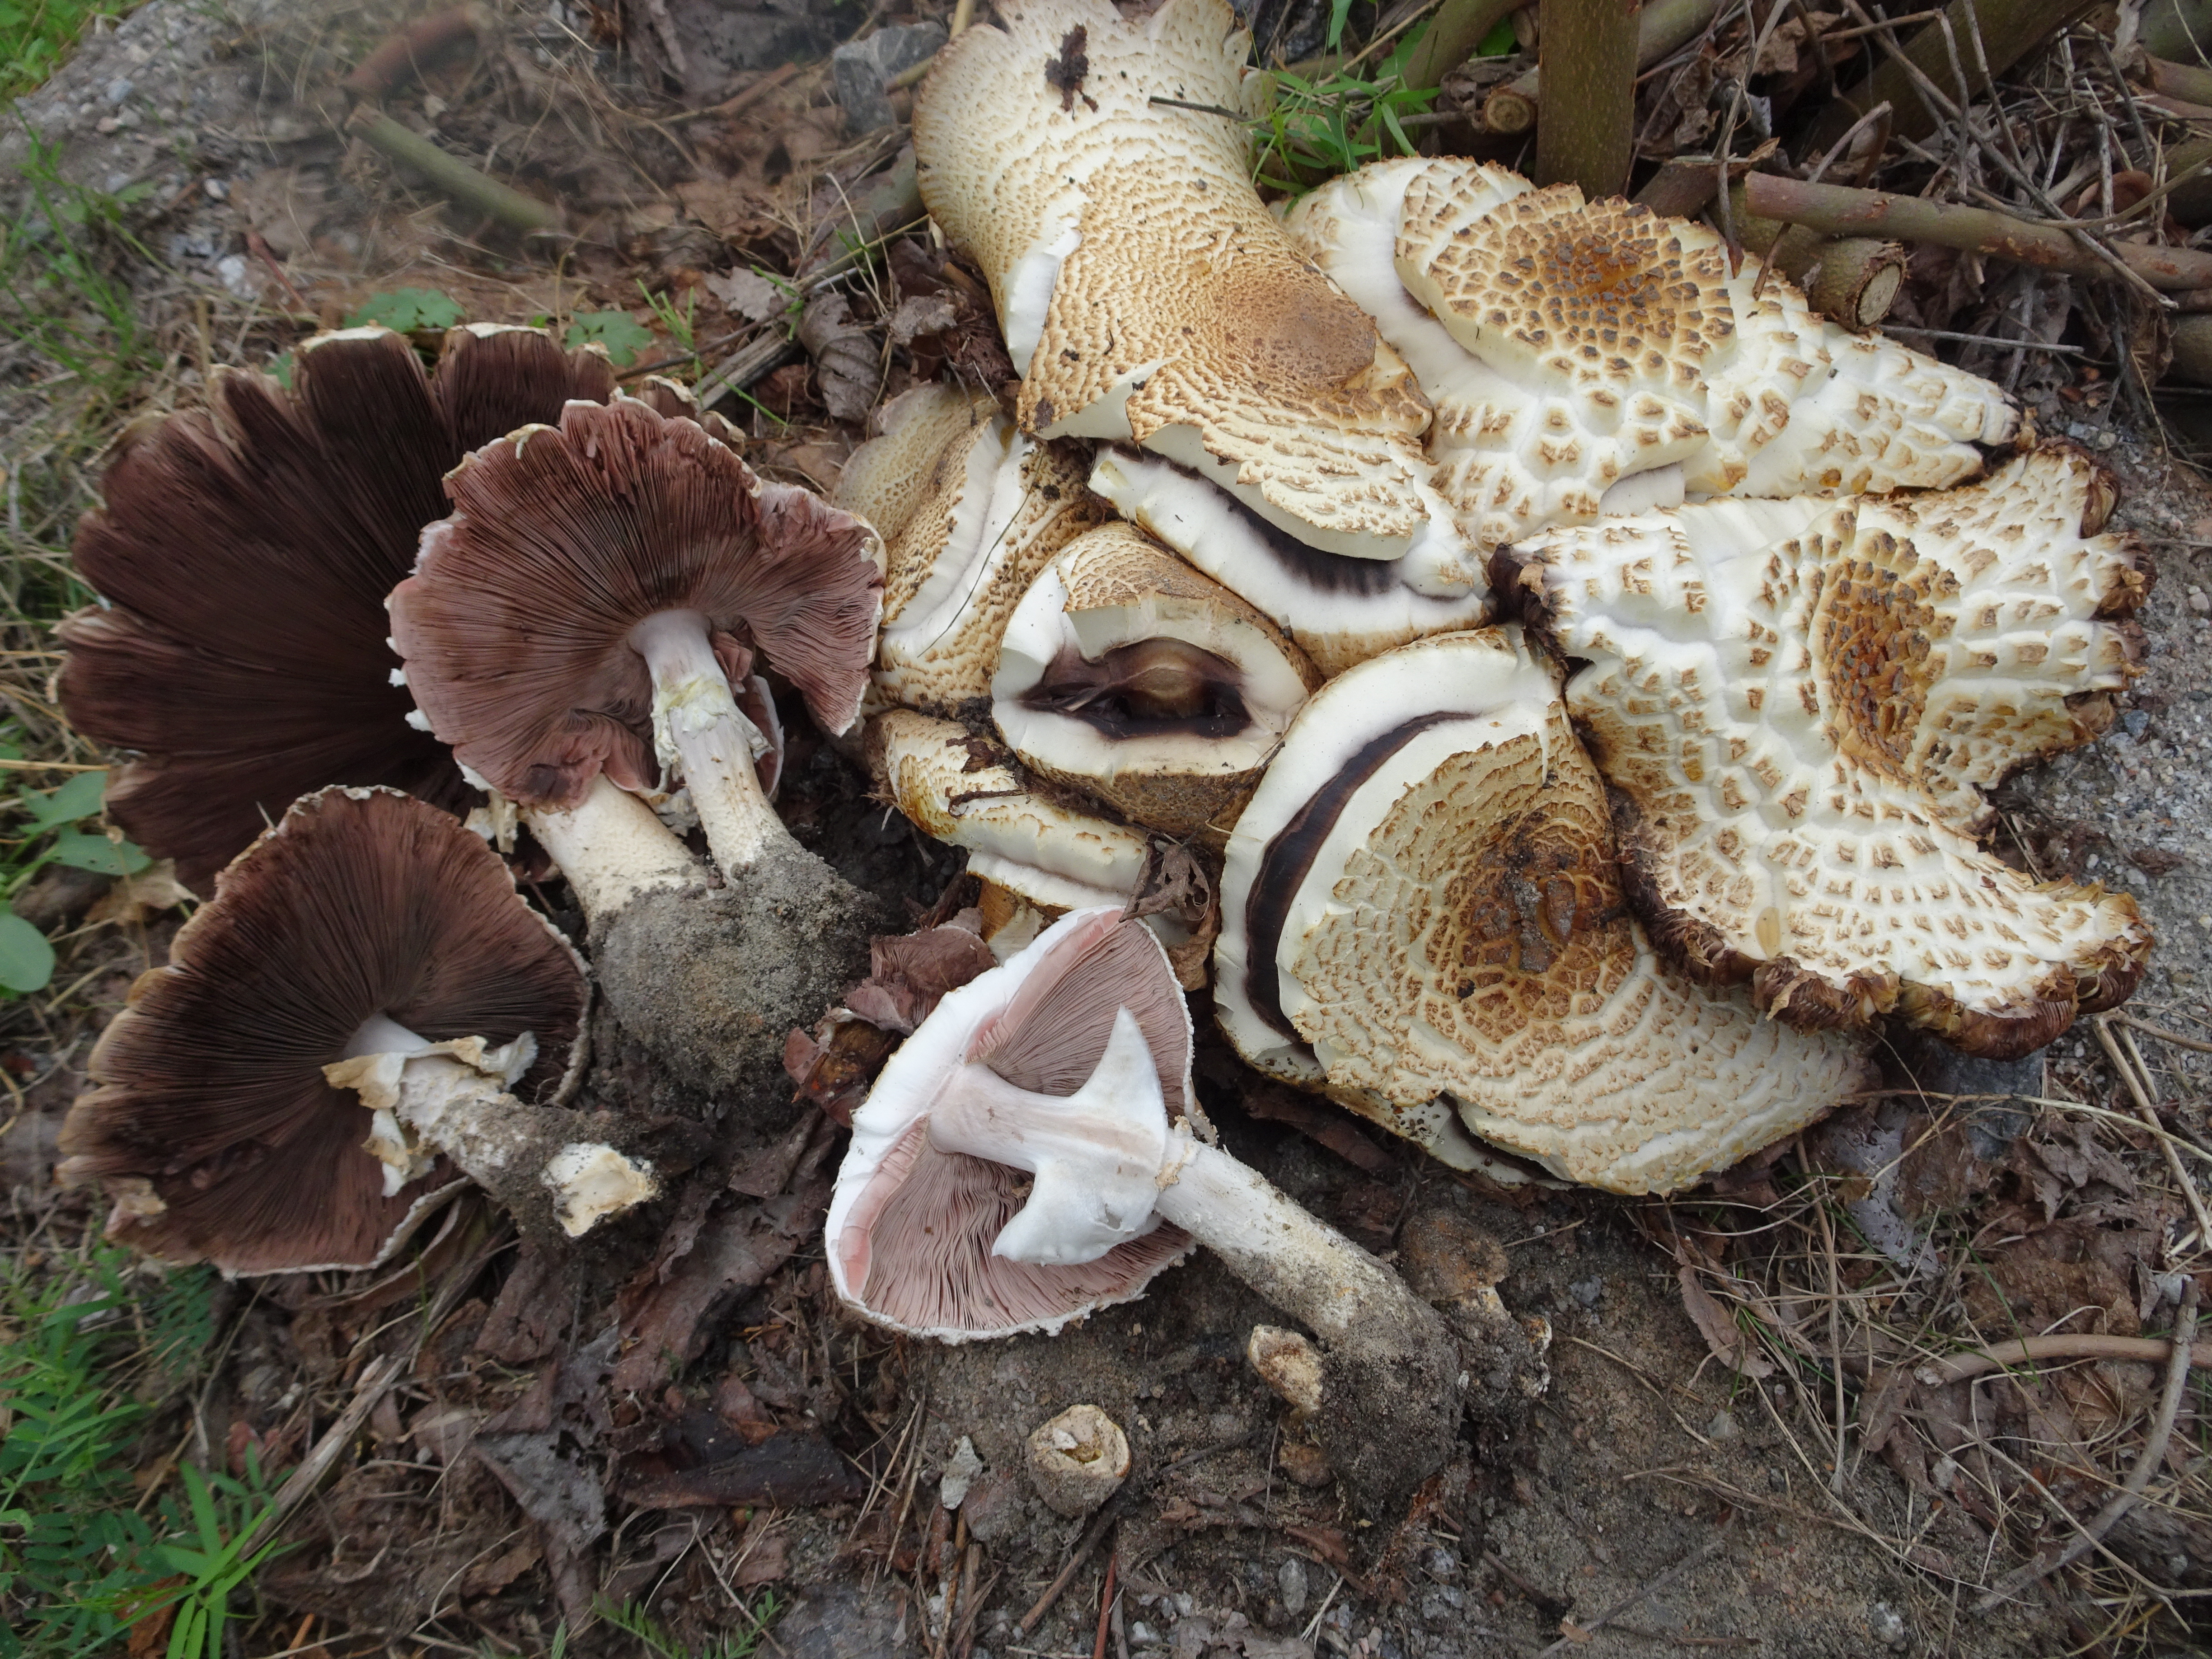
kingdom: Fungi
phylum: Basidiomycota
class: Agaricomycetes
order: Agaricales
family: Agaricaceae
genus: Agaricus
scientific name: Agaricus augustus
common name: Prince
